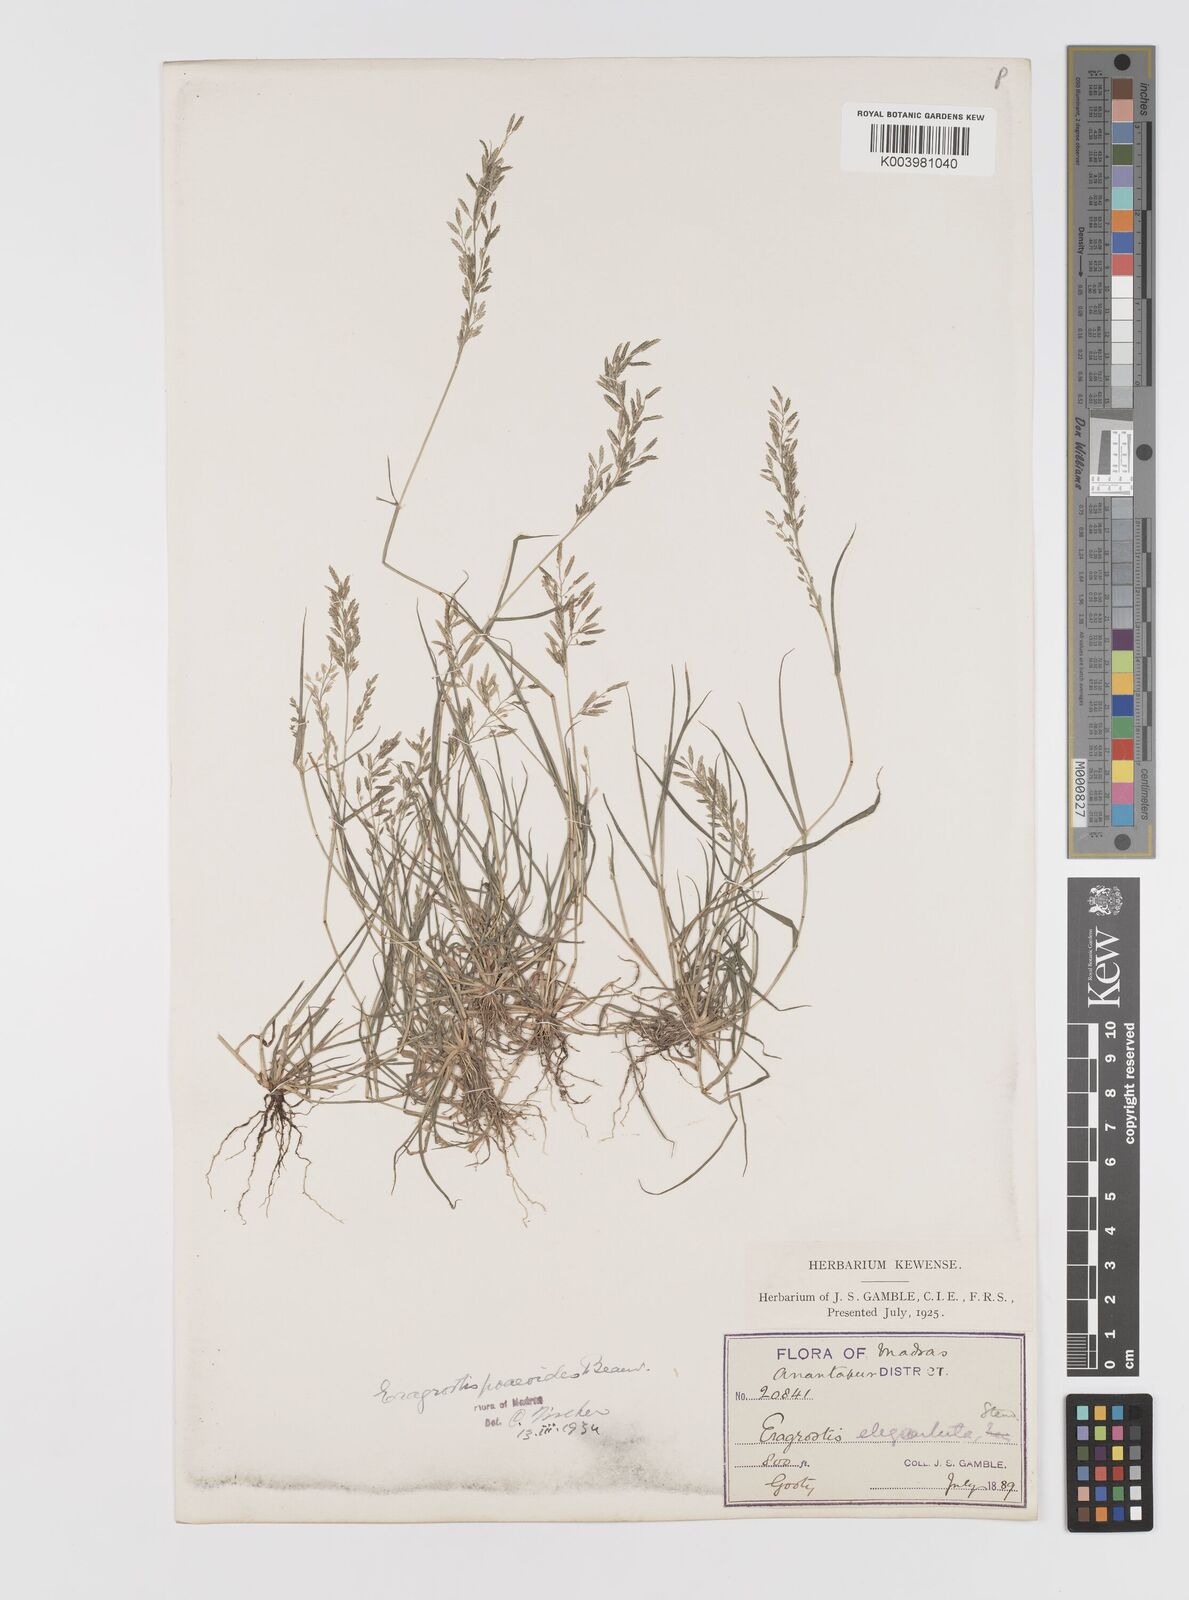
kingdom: Plantae
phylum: Tracheophyta
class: Liliopsida
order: Poales
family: Poaceae
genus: Eragrostis
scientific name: Eragrostis minor
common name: Small love-grass
